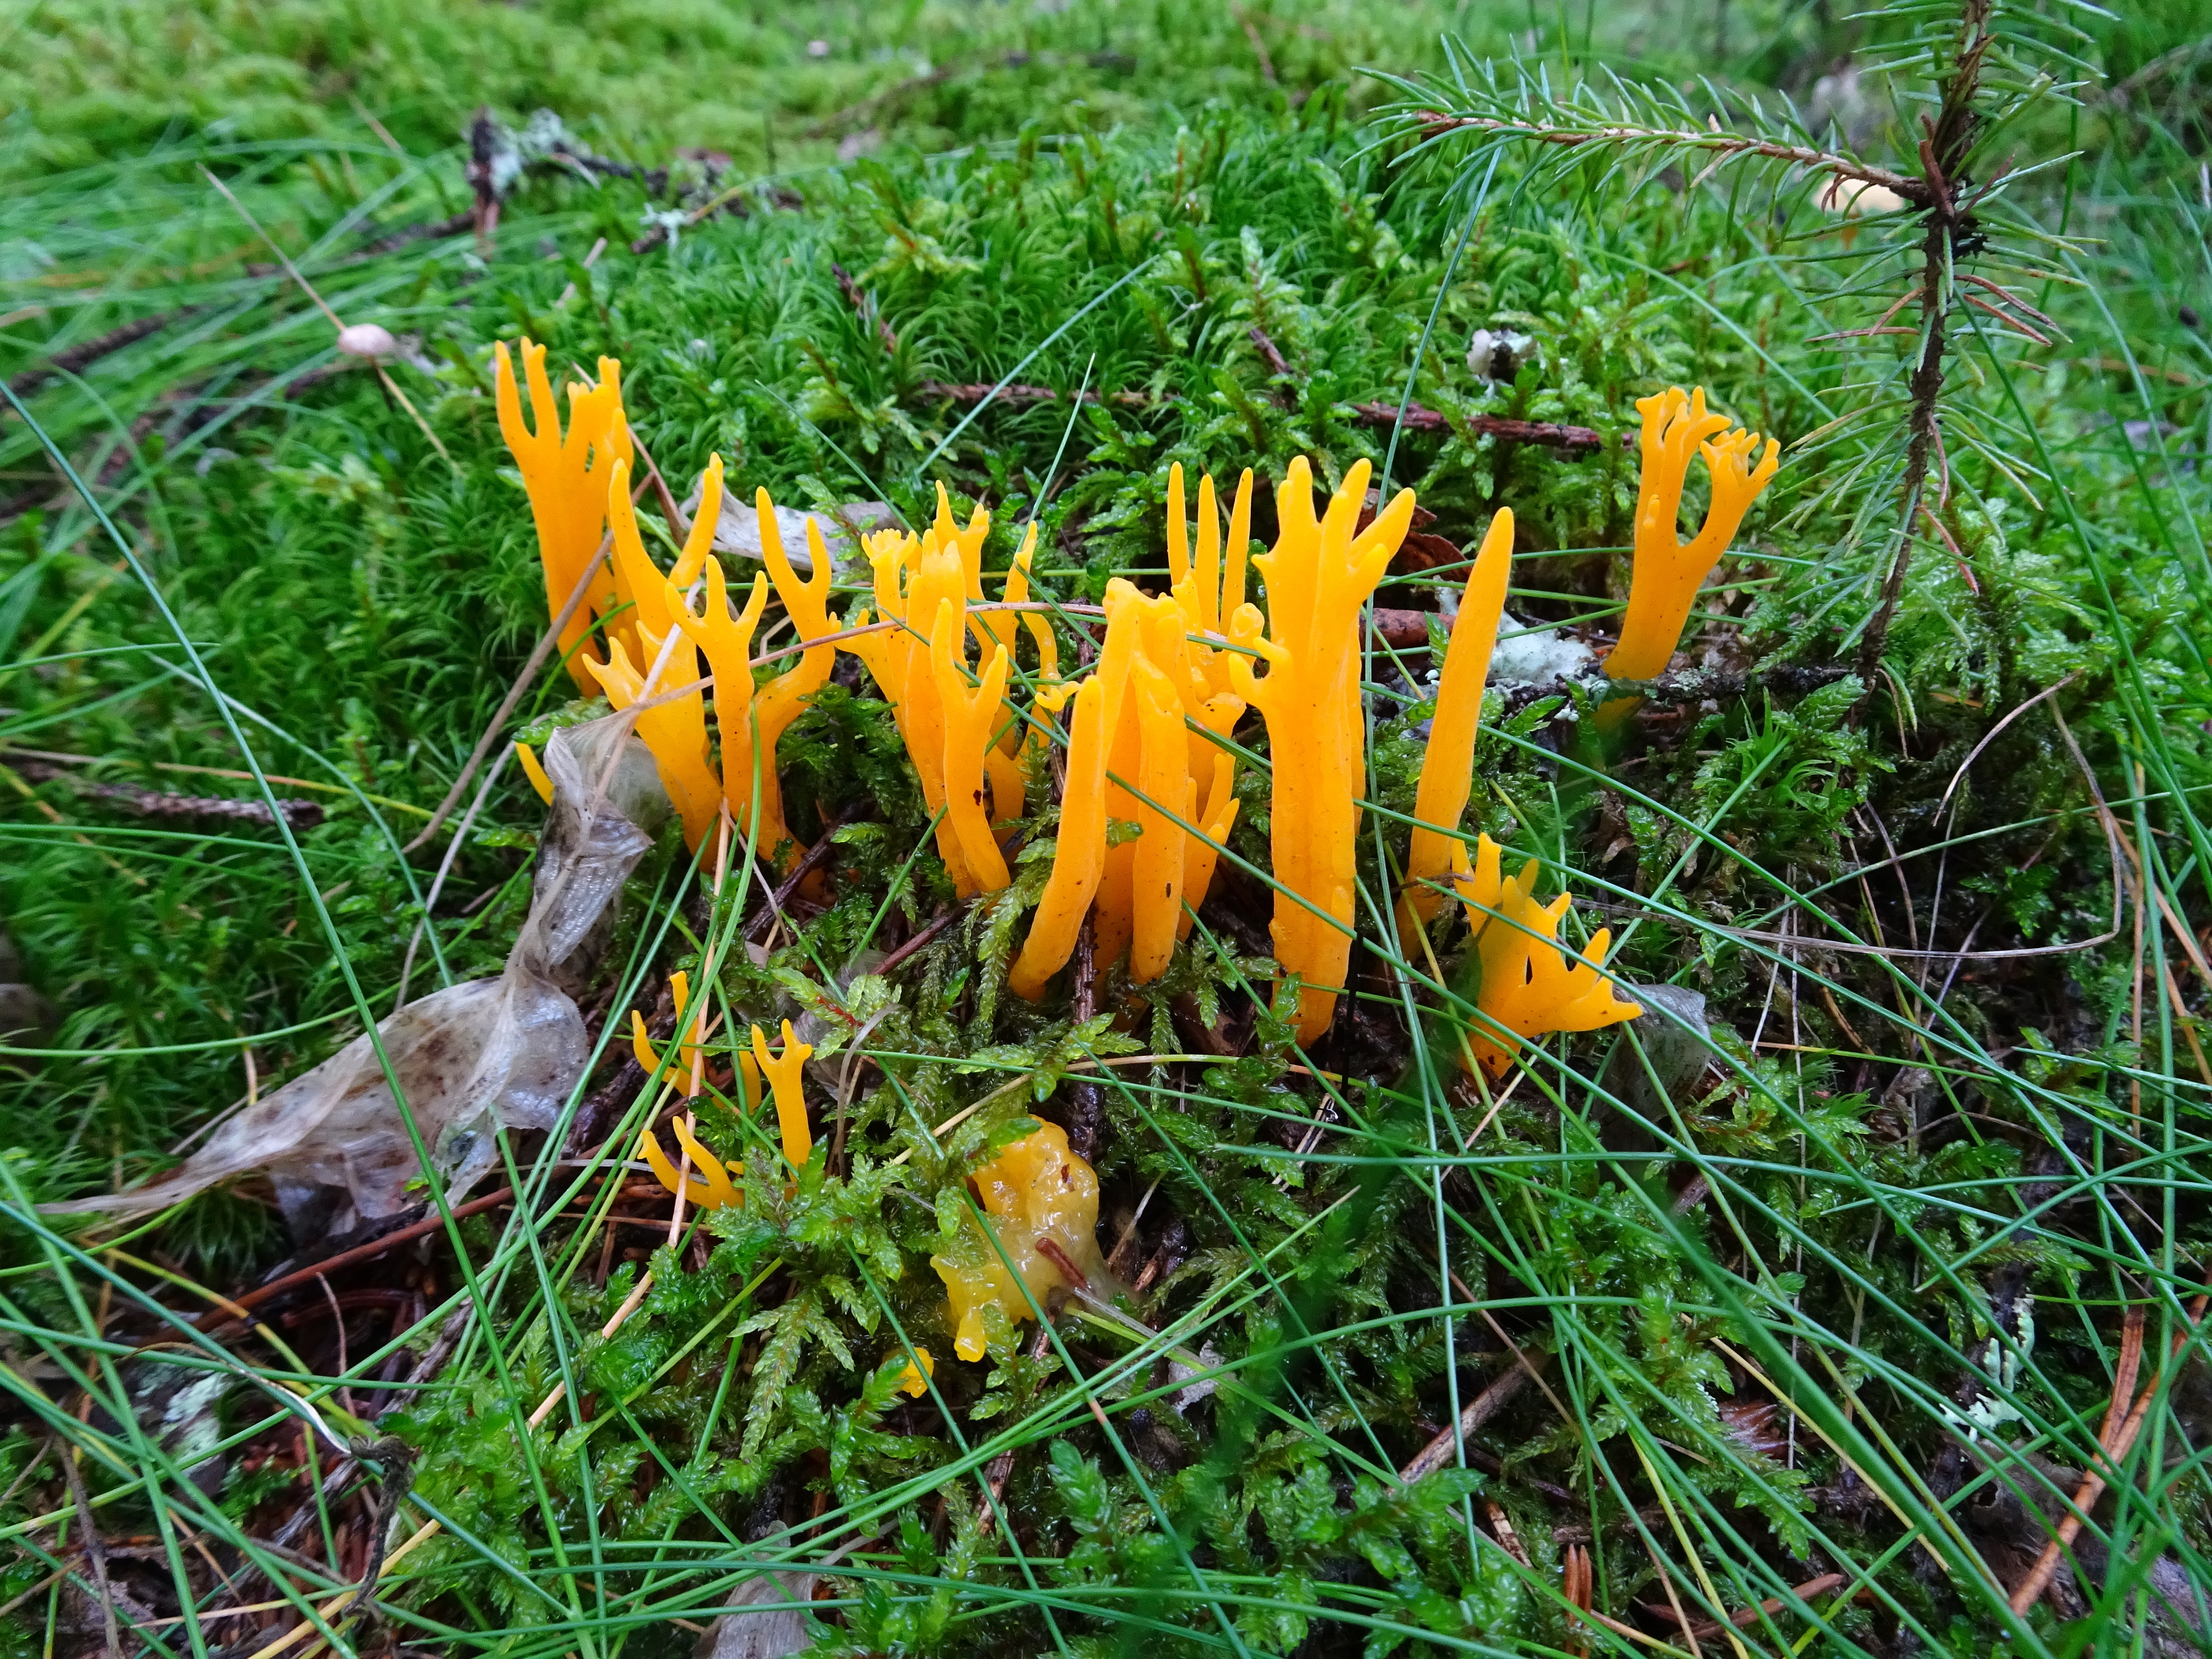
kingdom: Fungi
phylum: Basidiomycota
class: Dacrymycetes
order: Dacrymycetales
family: Dacrymycetaceae
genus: Calocera
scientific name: Calocera viscosa
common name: Yellow stagshorn
